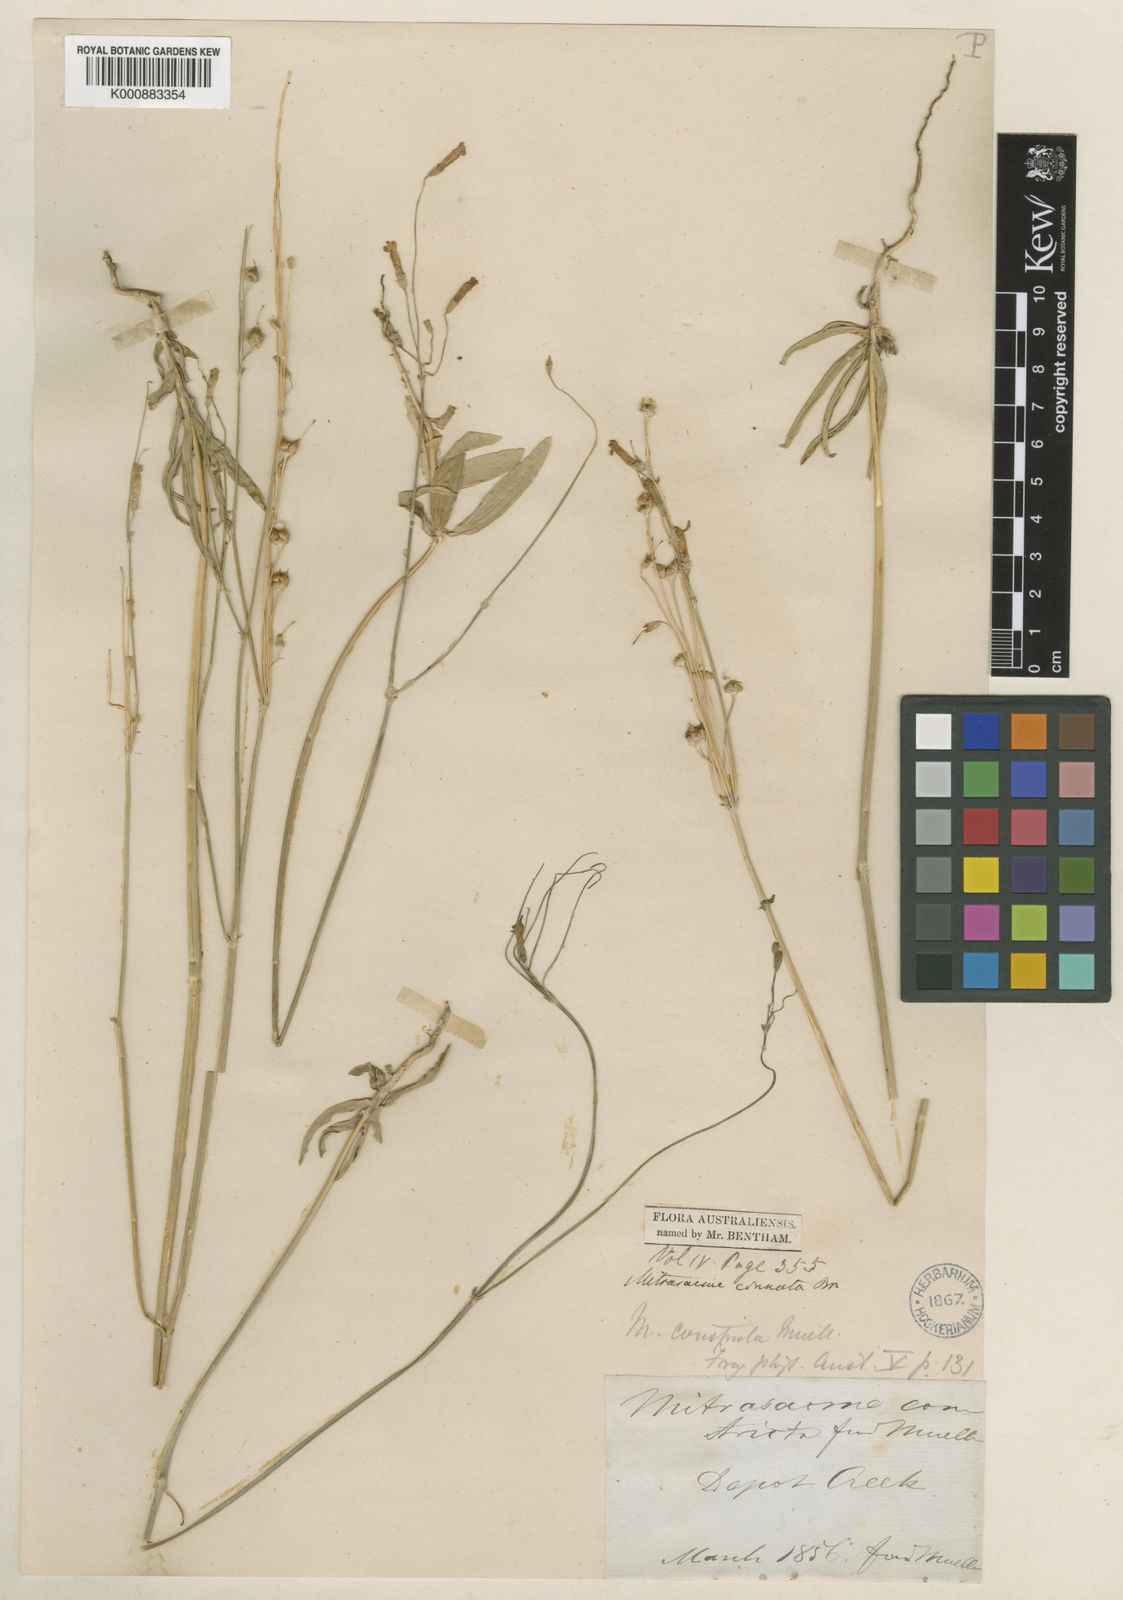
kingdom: Plantae
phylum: Tracheophyta
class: Magnoliopsida
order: Gentianales
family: Loganiaceae
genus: Mitrasacme
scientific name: Mitrasacme connata
